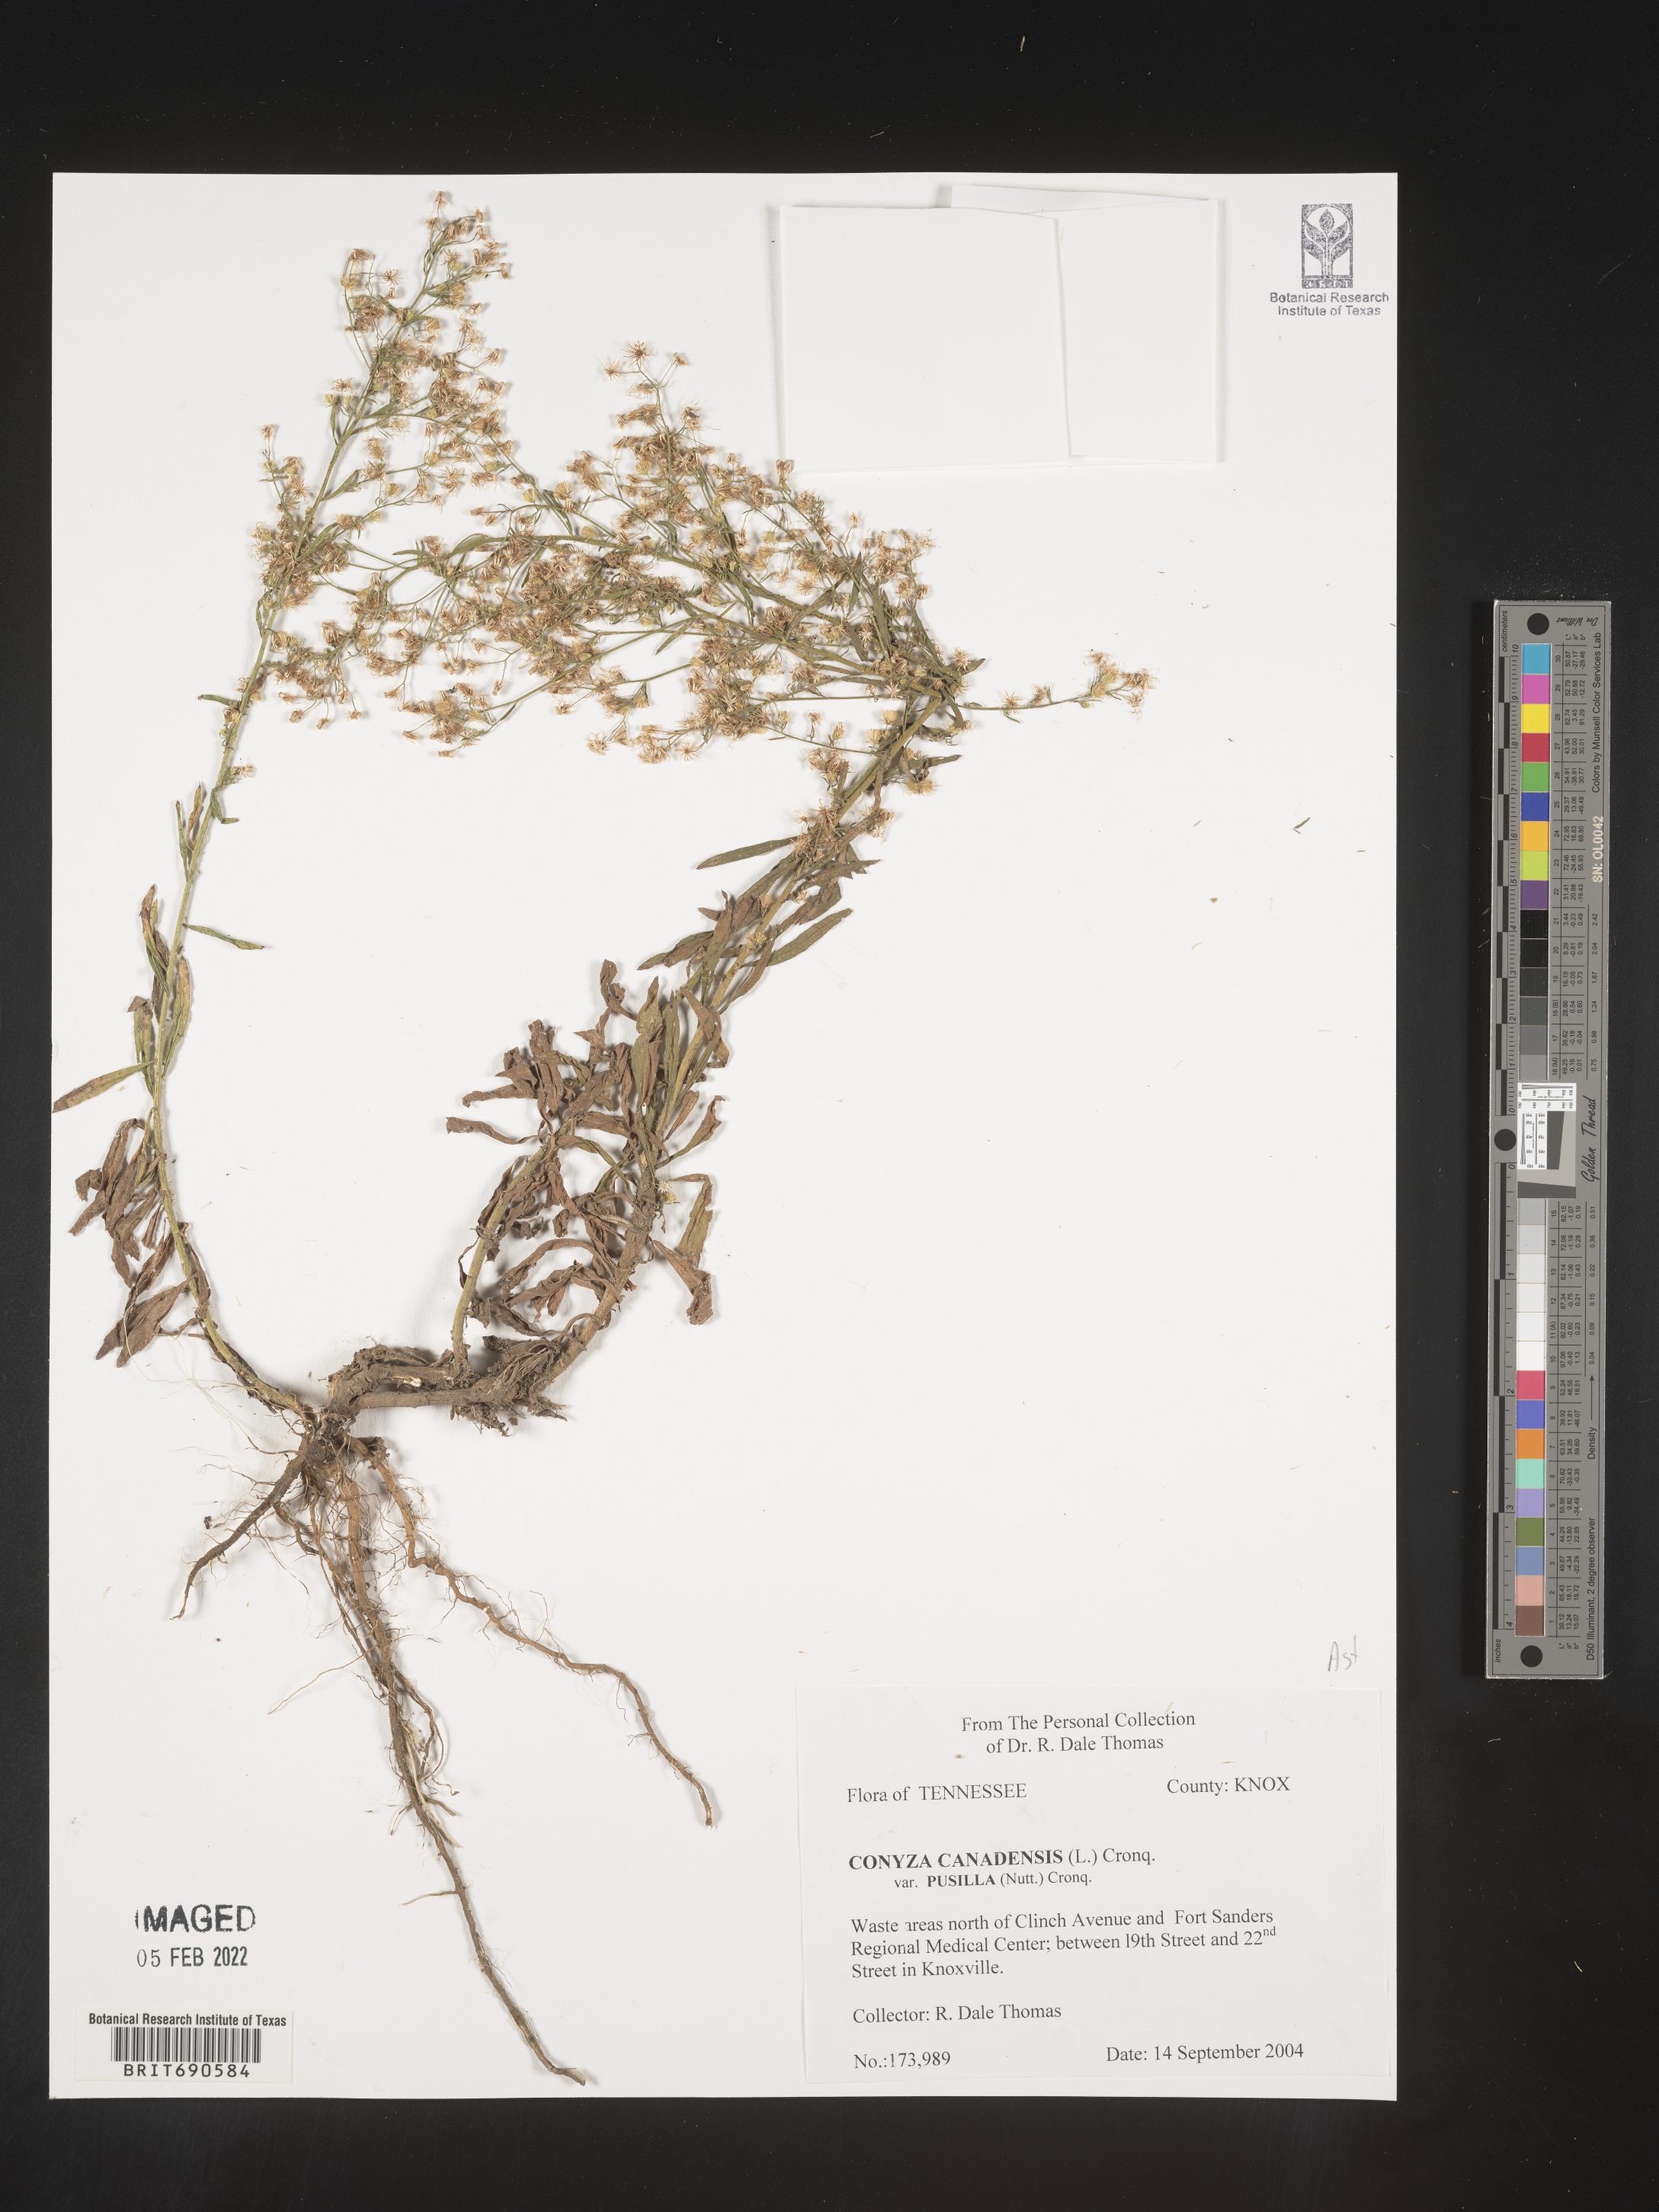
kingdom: Plantae
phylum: Tracheophyta
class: Magnoliopsida
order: Asterales
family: Asteraceae
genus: Erigeron
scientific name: Erigeron canadensis
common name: Canadian fleabane
